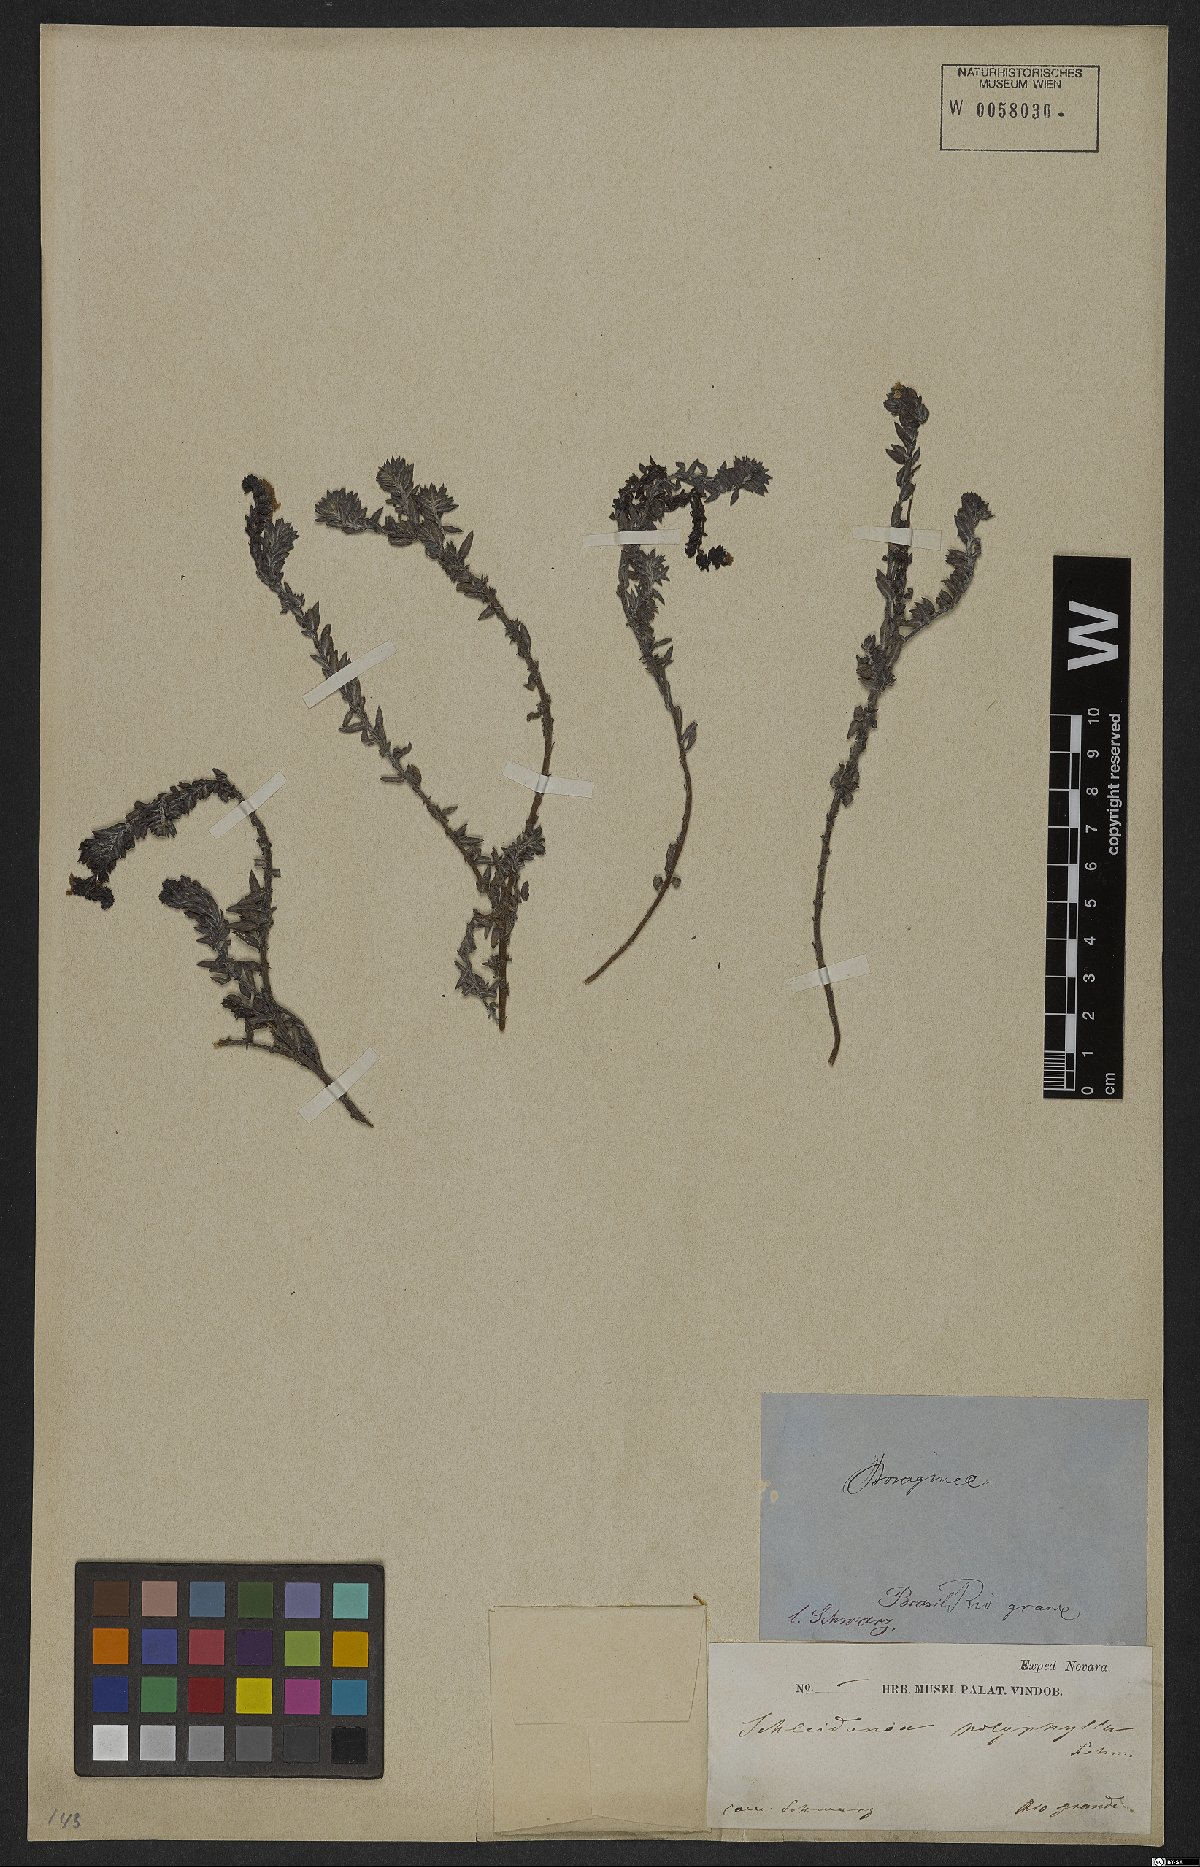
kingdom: Plantae
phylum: Tracheophyta
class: Magnoliopsida
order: Boraginales
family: Heliotropiaceae
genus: Euploca
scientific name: Euploca polyphylla
